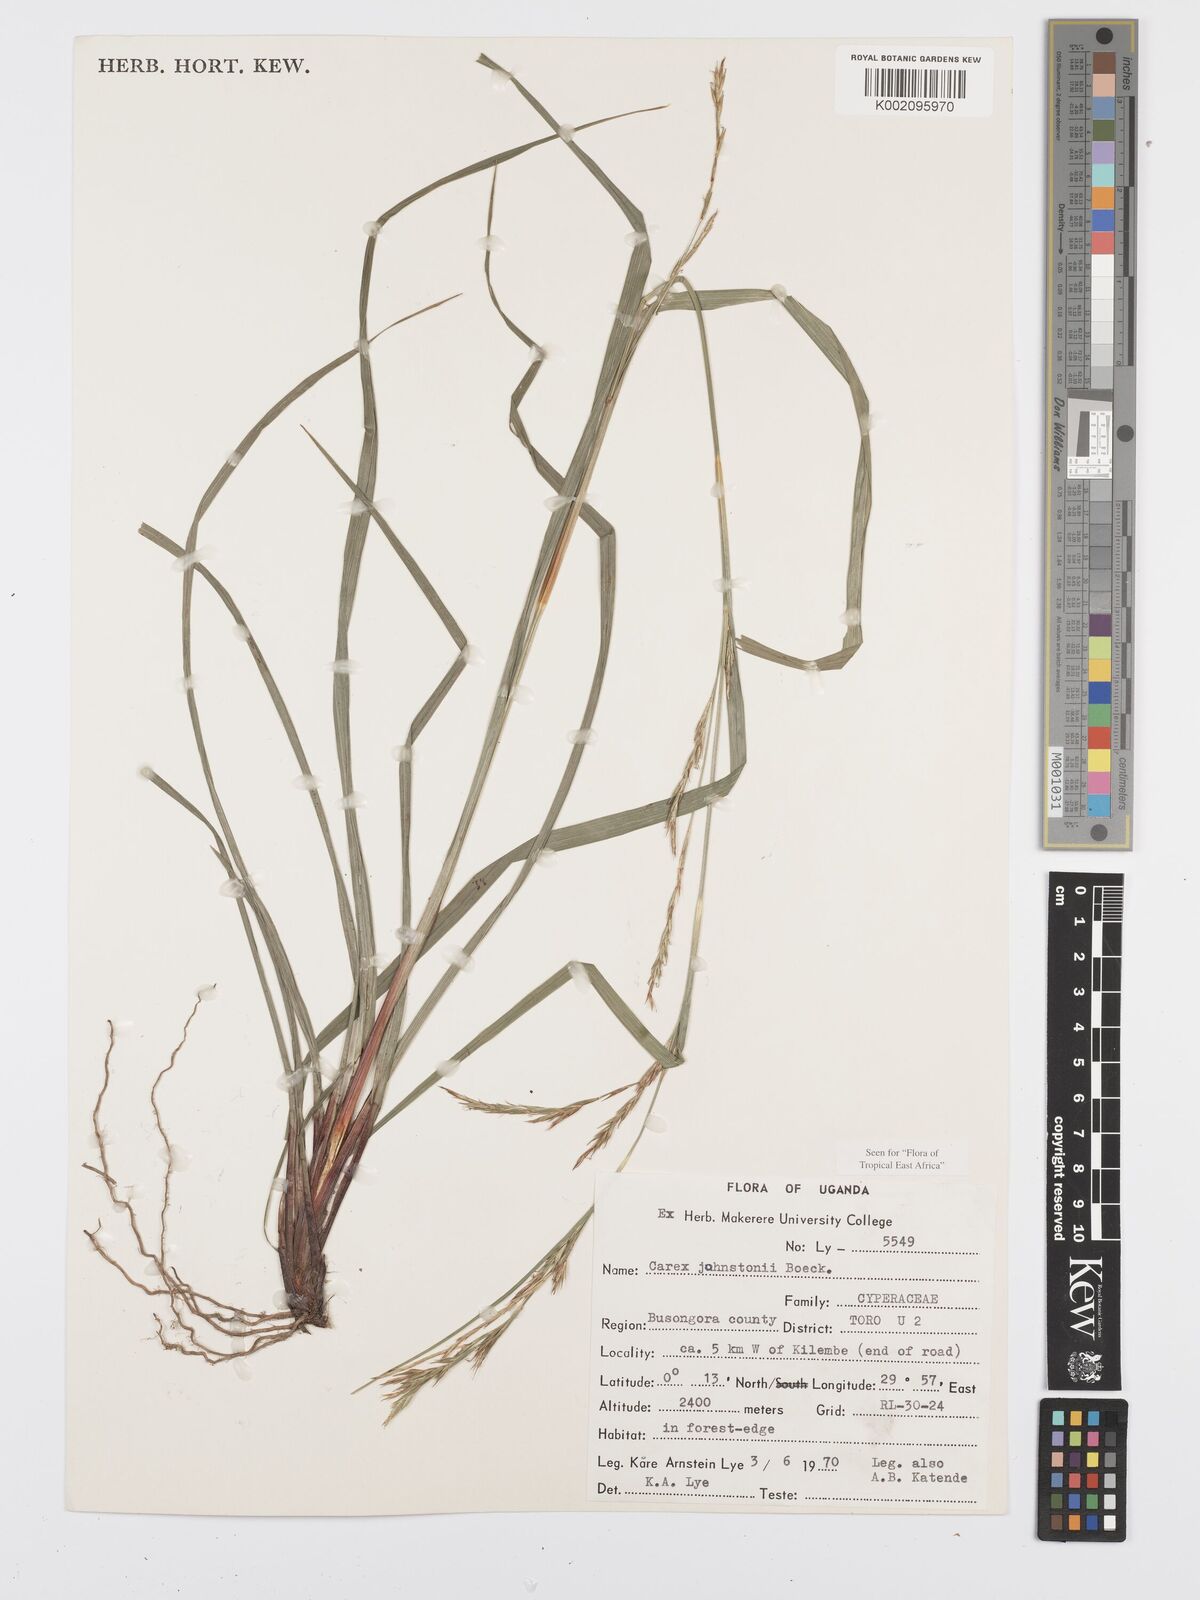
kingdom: Plantae
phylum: Tracheophyta
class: Liliopsida
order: Poales
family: Cyperaceae
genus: Carex
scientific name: Carex johnstonii
